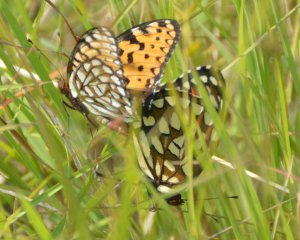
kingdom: Animalia
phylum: Arthropoda
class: Insecta
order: Lepidoptera
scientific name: Lepidoptera
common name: Butterflies
